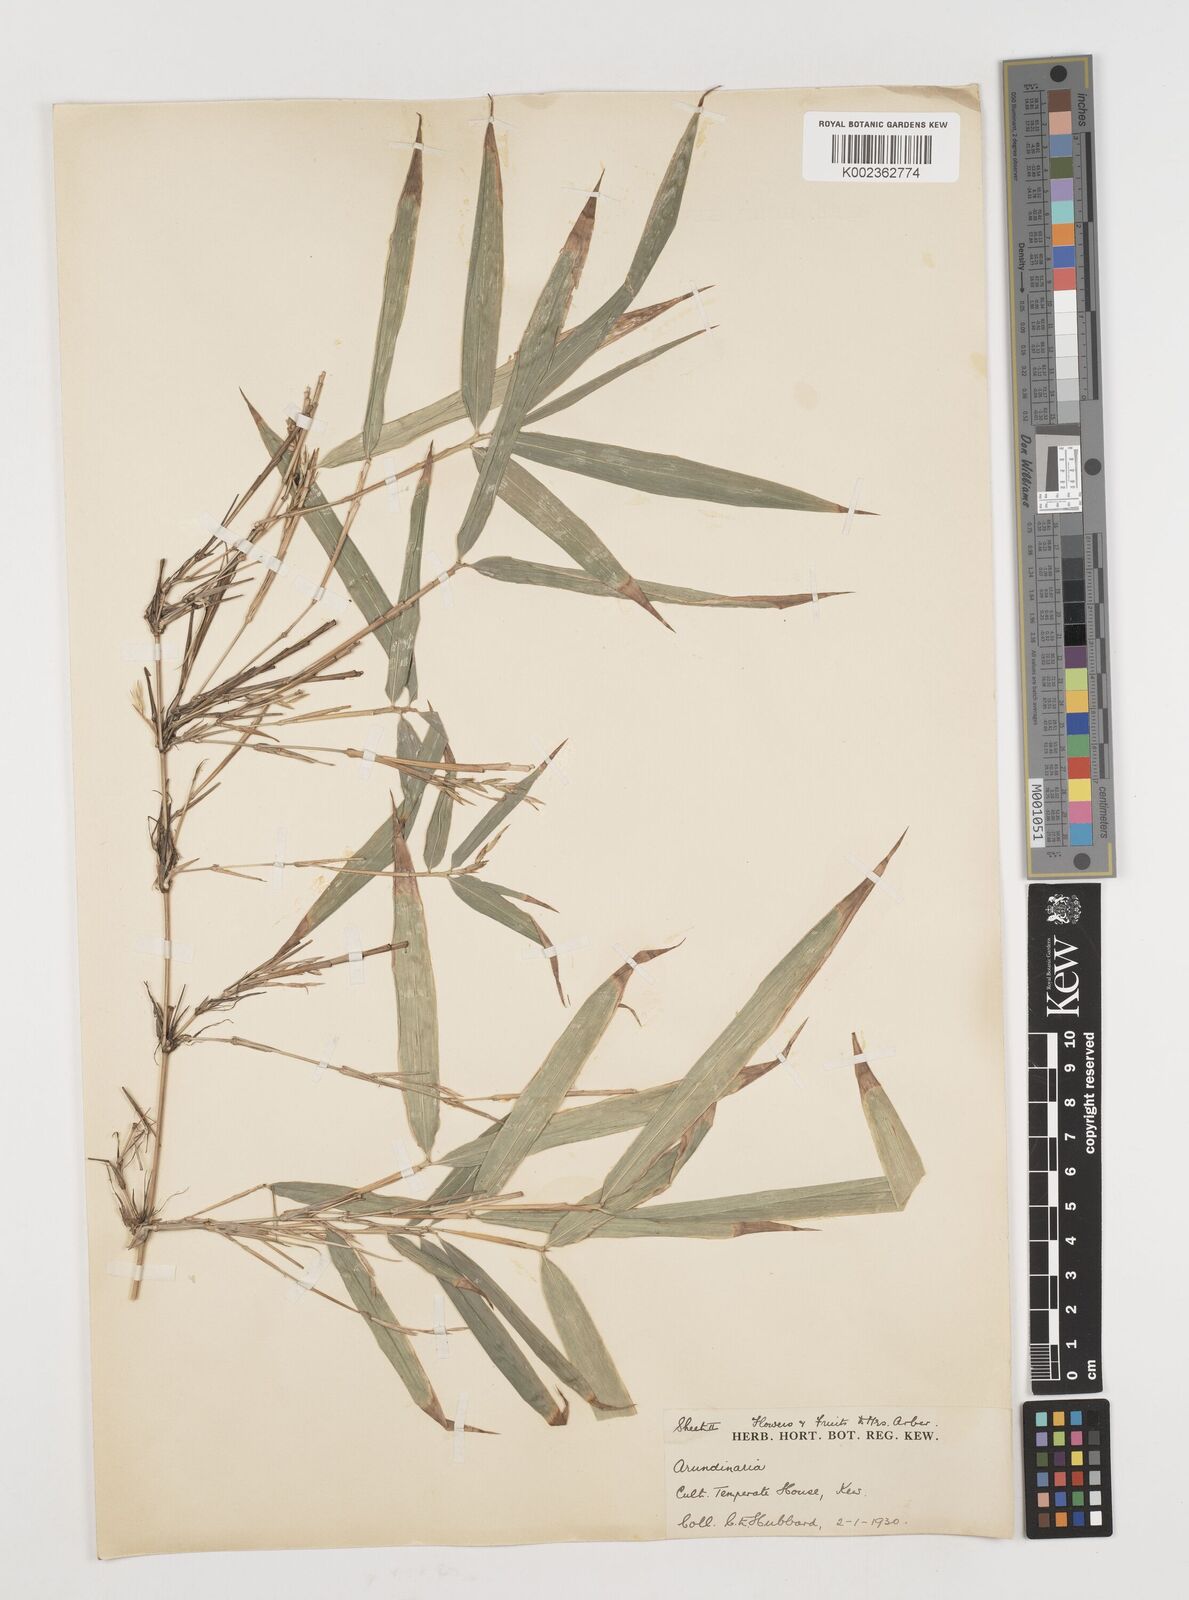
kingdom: Plantae
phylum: Tracheophyta
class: Liliopsida
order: Poales
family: Poaceae
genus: Chimonobambusa
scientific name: Chimonobambusa marmorea
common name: Marbled bamboo
